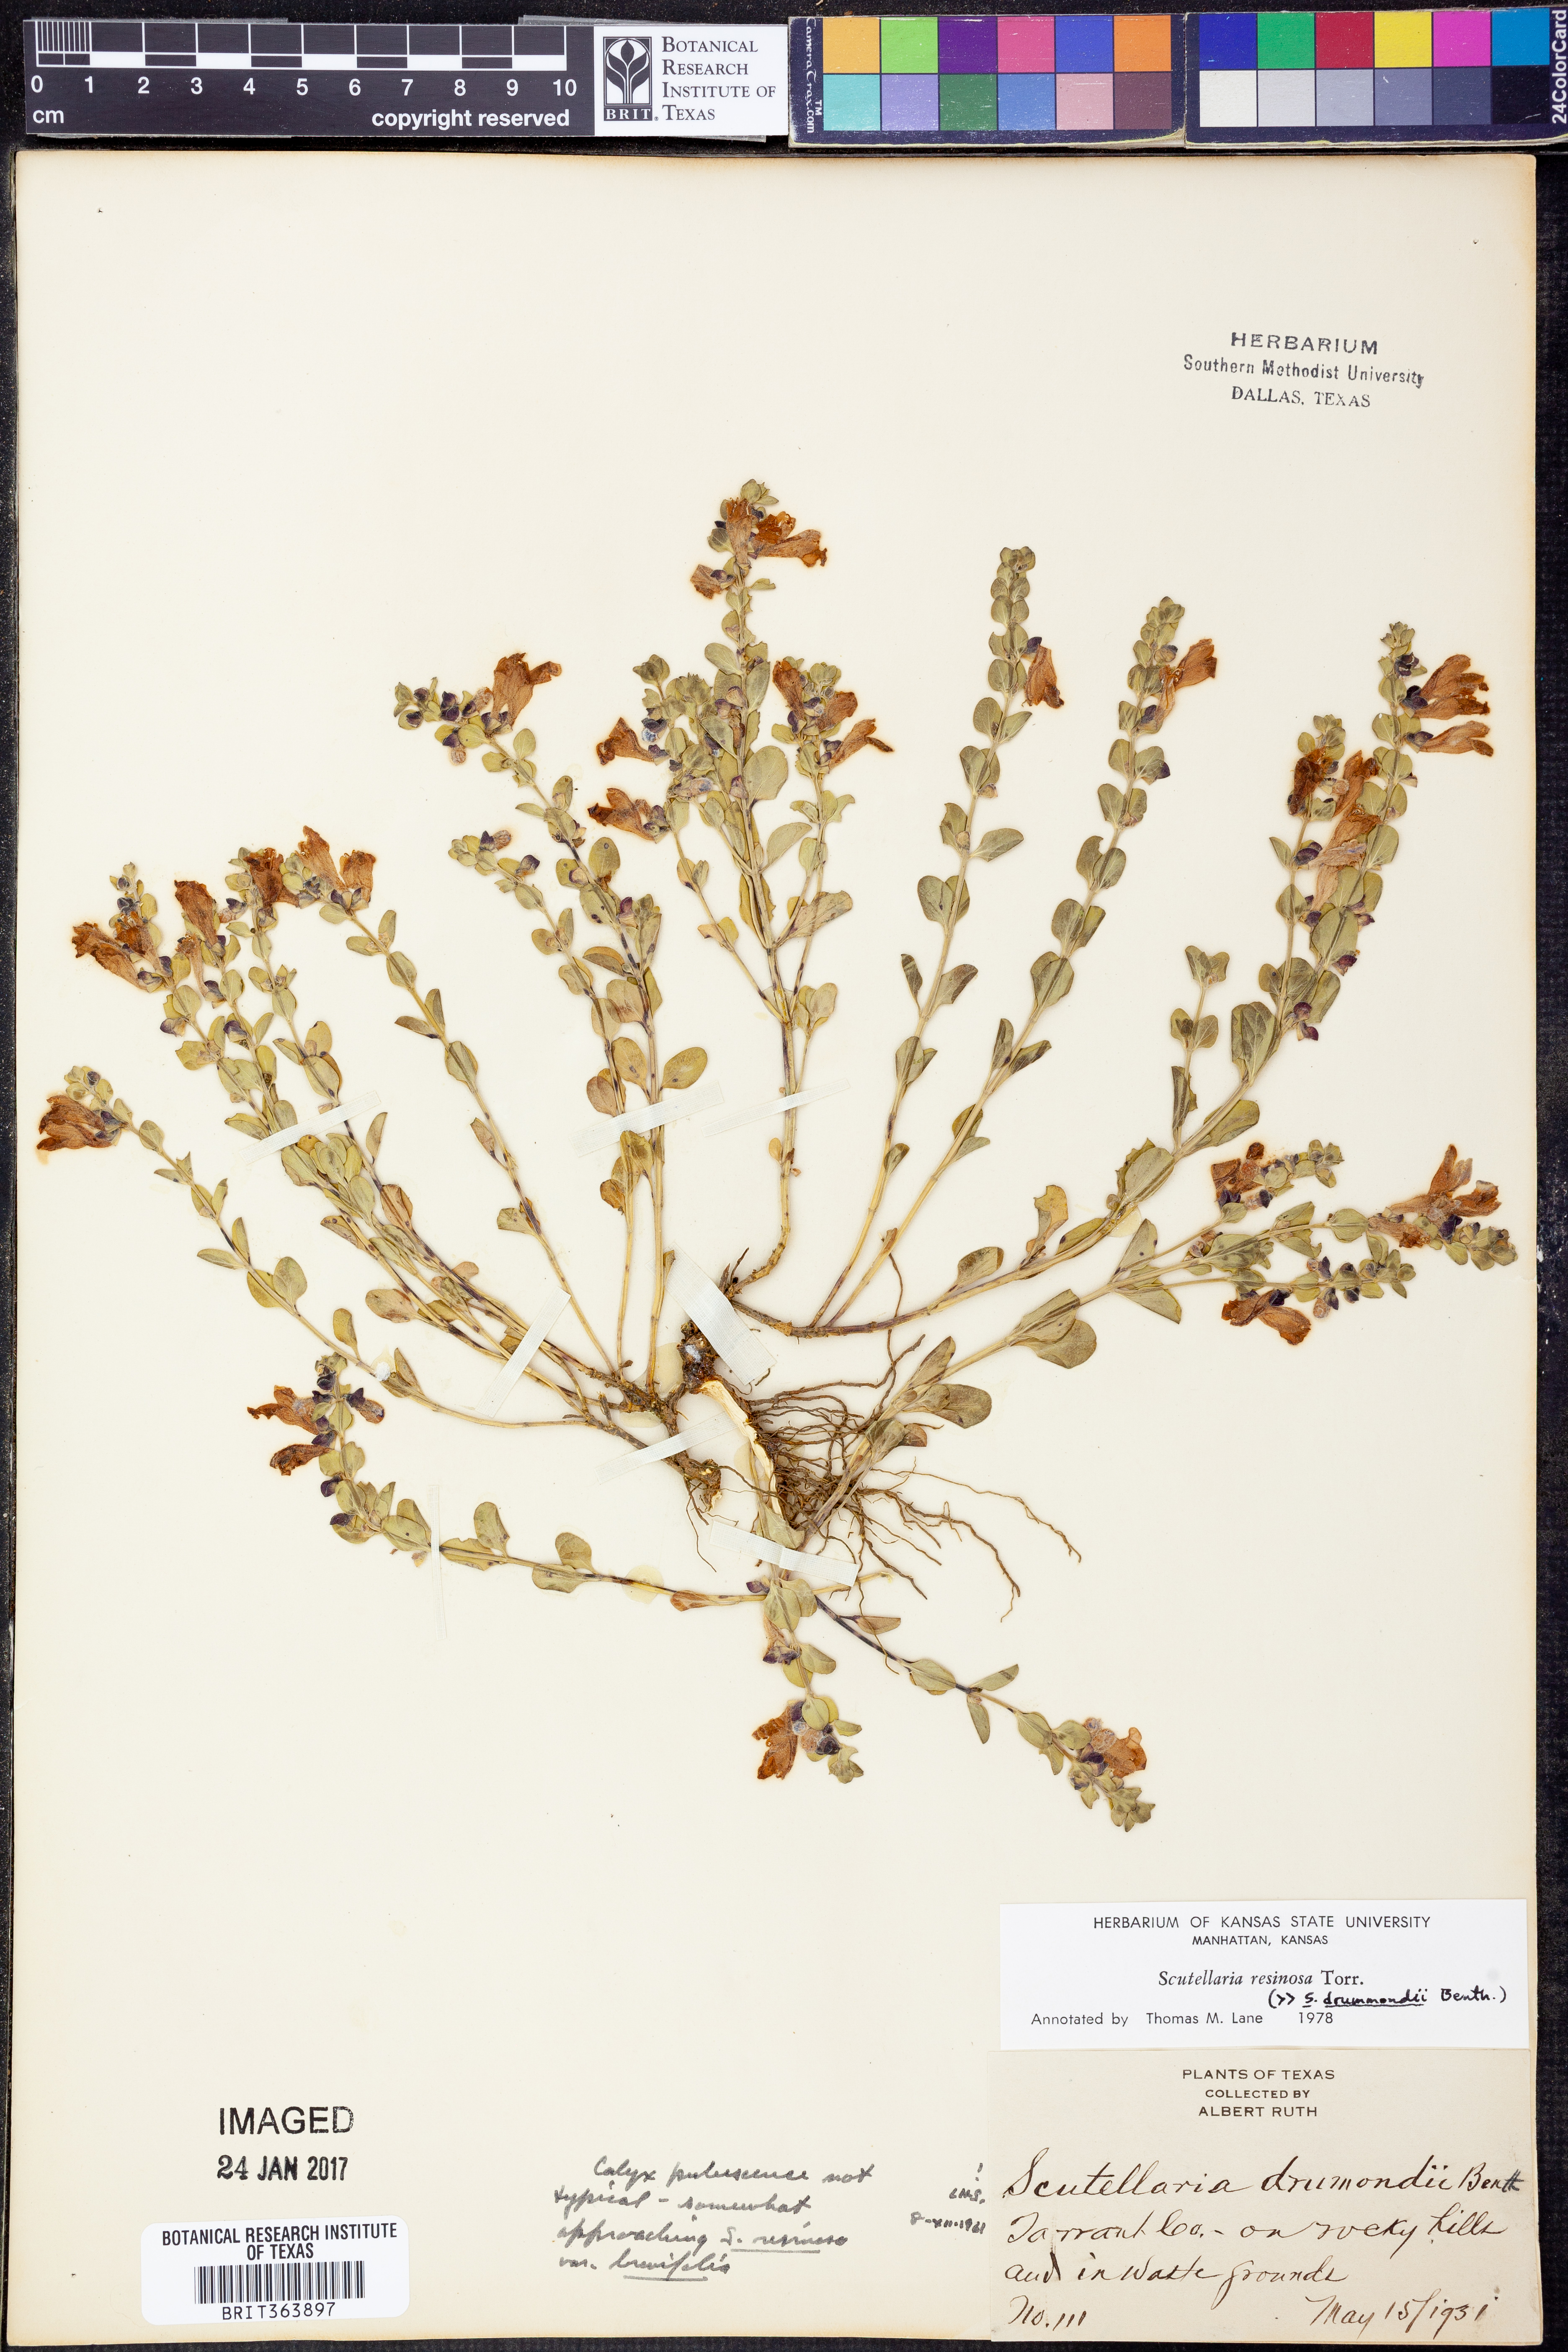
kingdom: Plantae
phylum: Tracheophyta
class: Magnoliopsida
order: Lamiales
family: Lamiaceae
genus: Scutellaria
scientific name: Scutellaria resinosa
